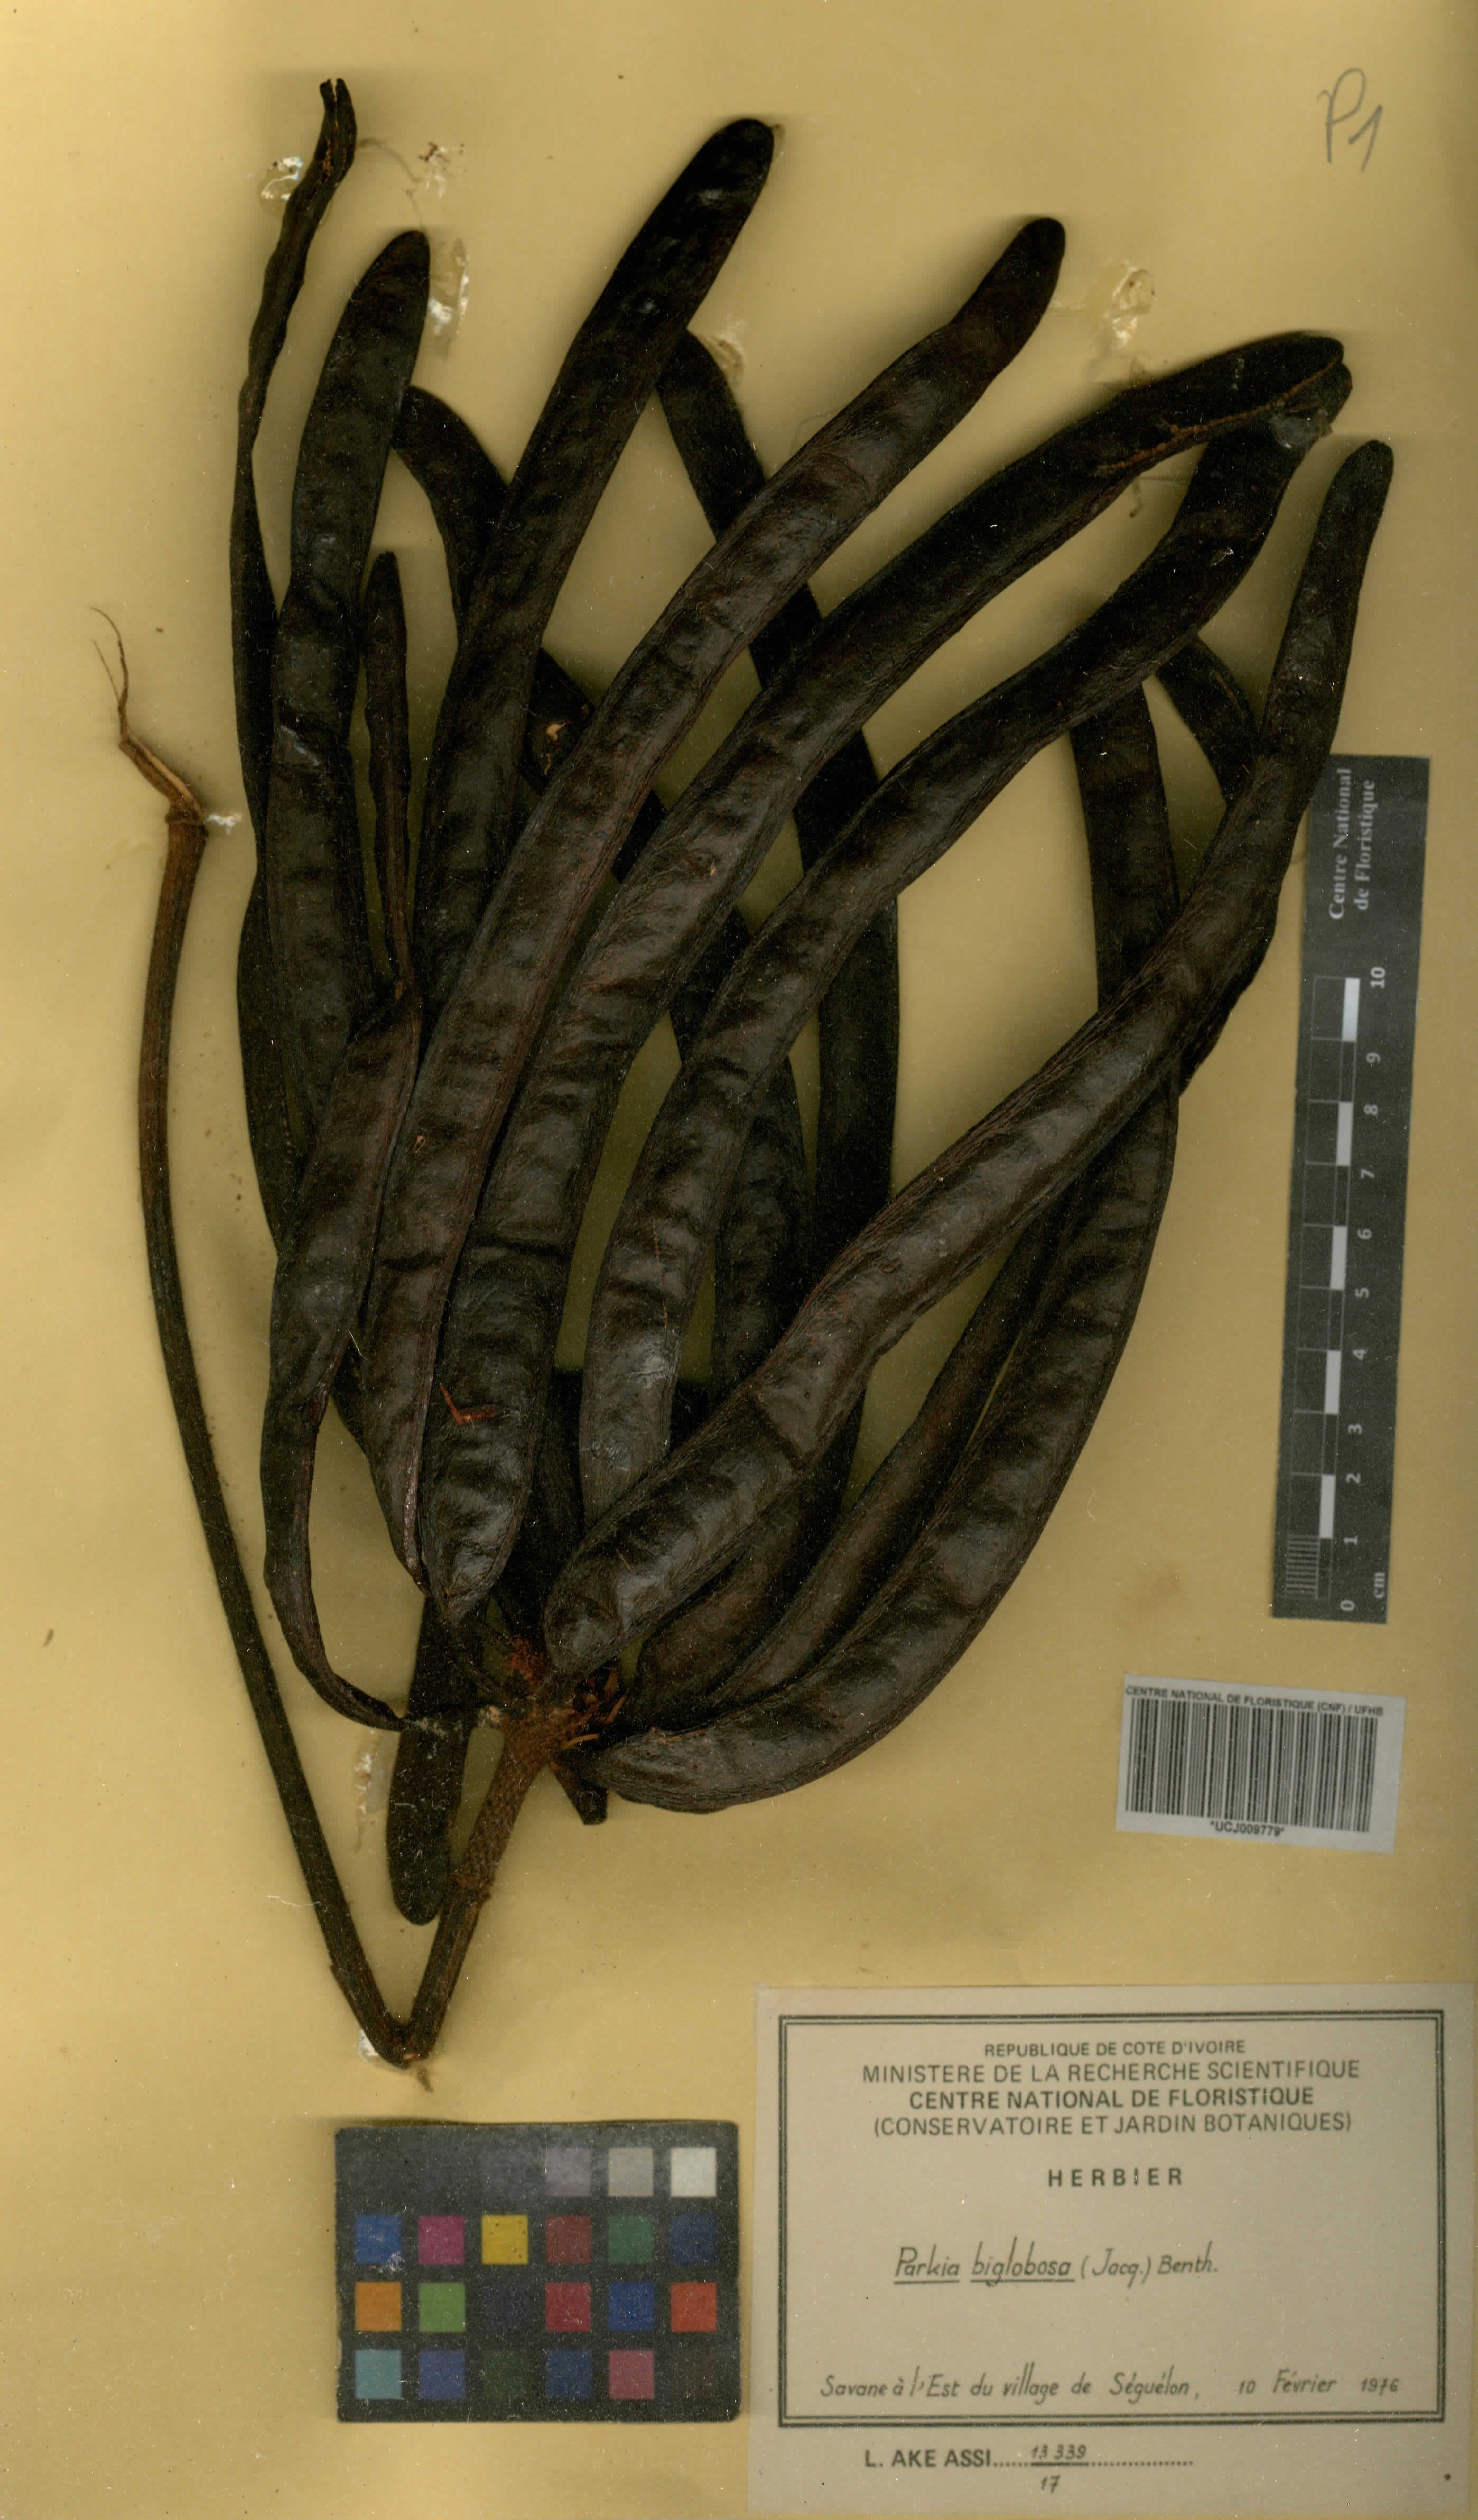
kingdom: Plantae
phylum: Tracheophyta
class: Magnoliopsida
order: Fabales
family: Fabaceae
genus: Parkia
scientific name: Parkia timoriana
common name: Legume
